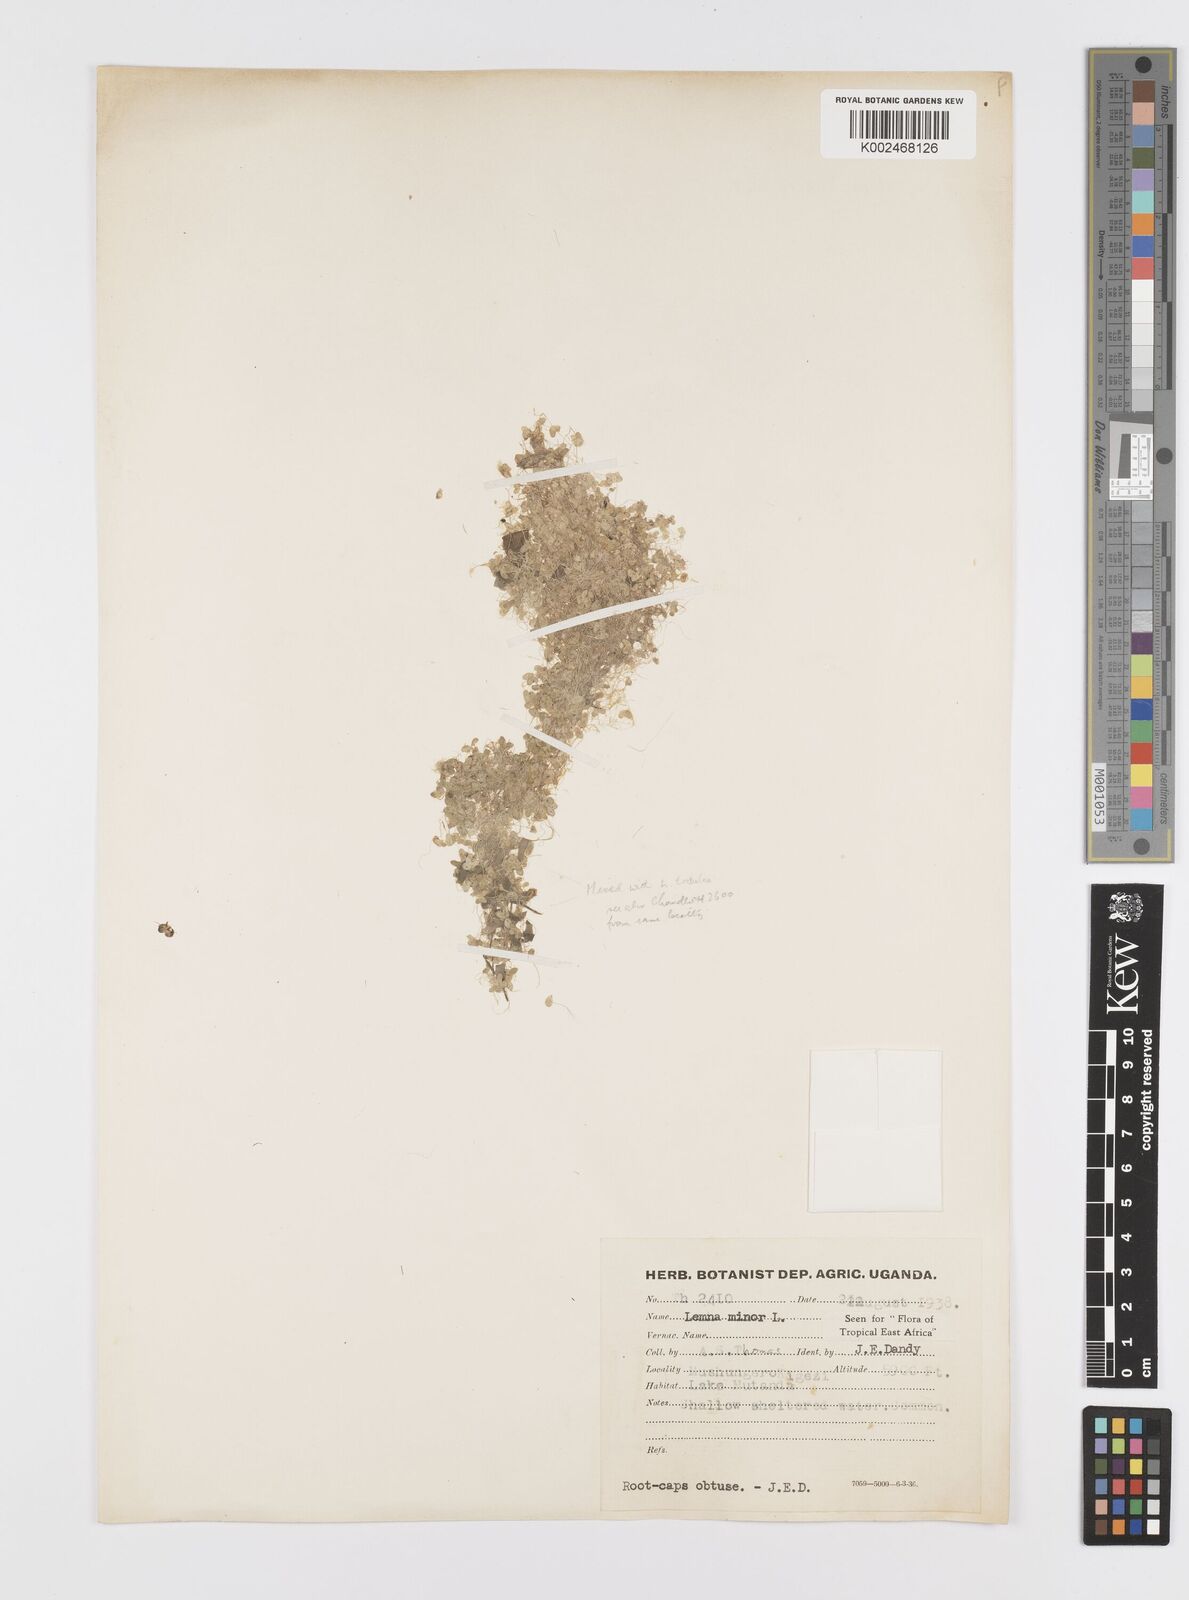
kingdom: Plantae
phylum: Tracheophyta
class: Liliopsida
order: Alismatales
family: Araceae
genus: Lemna
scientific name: Lemna minor
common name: Common duckweed
